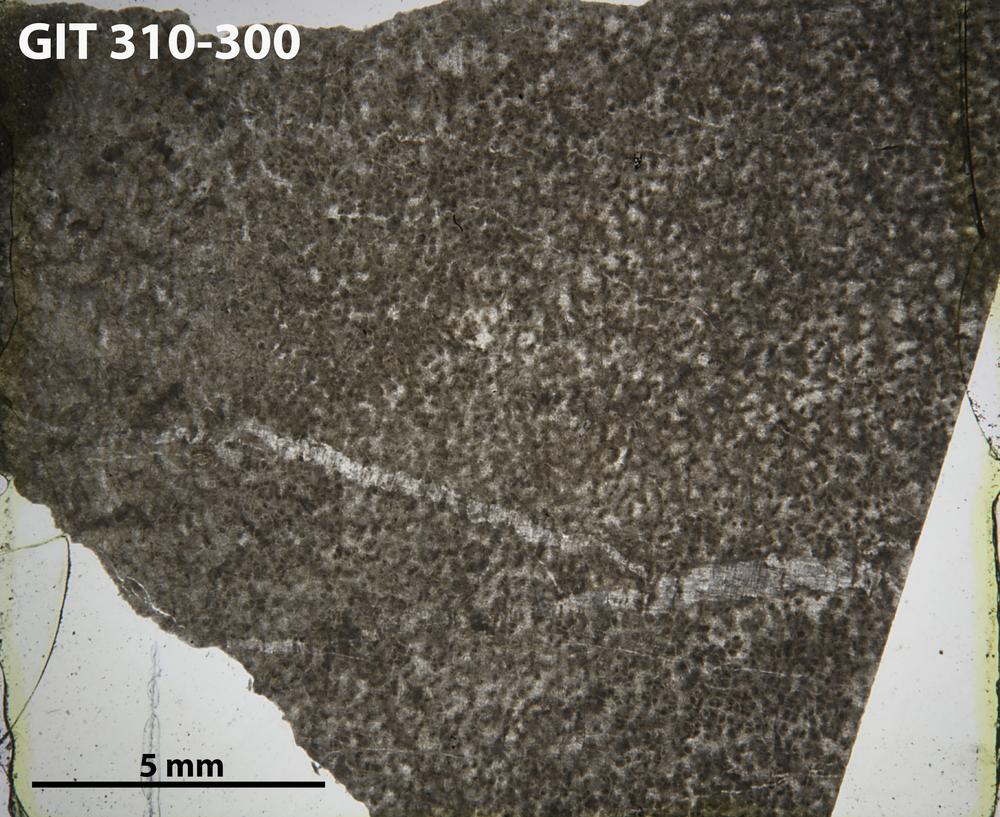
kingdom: Animalia
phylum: Porifera
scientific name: Porifera
